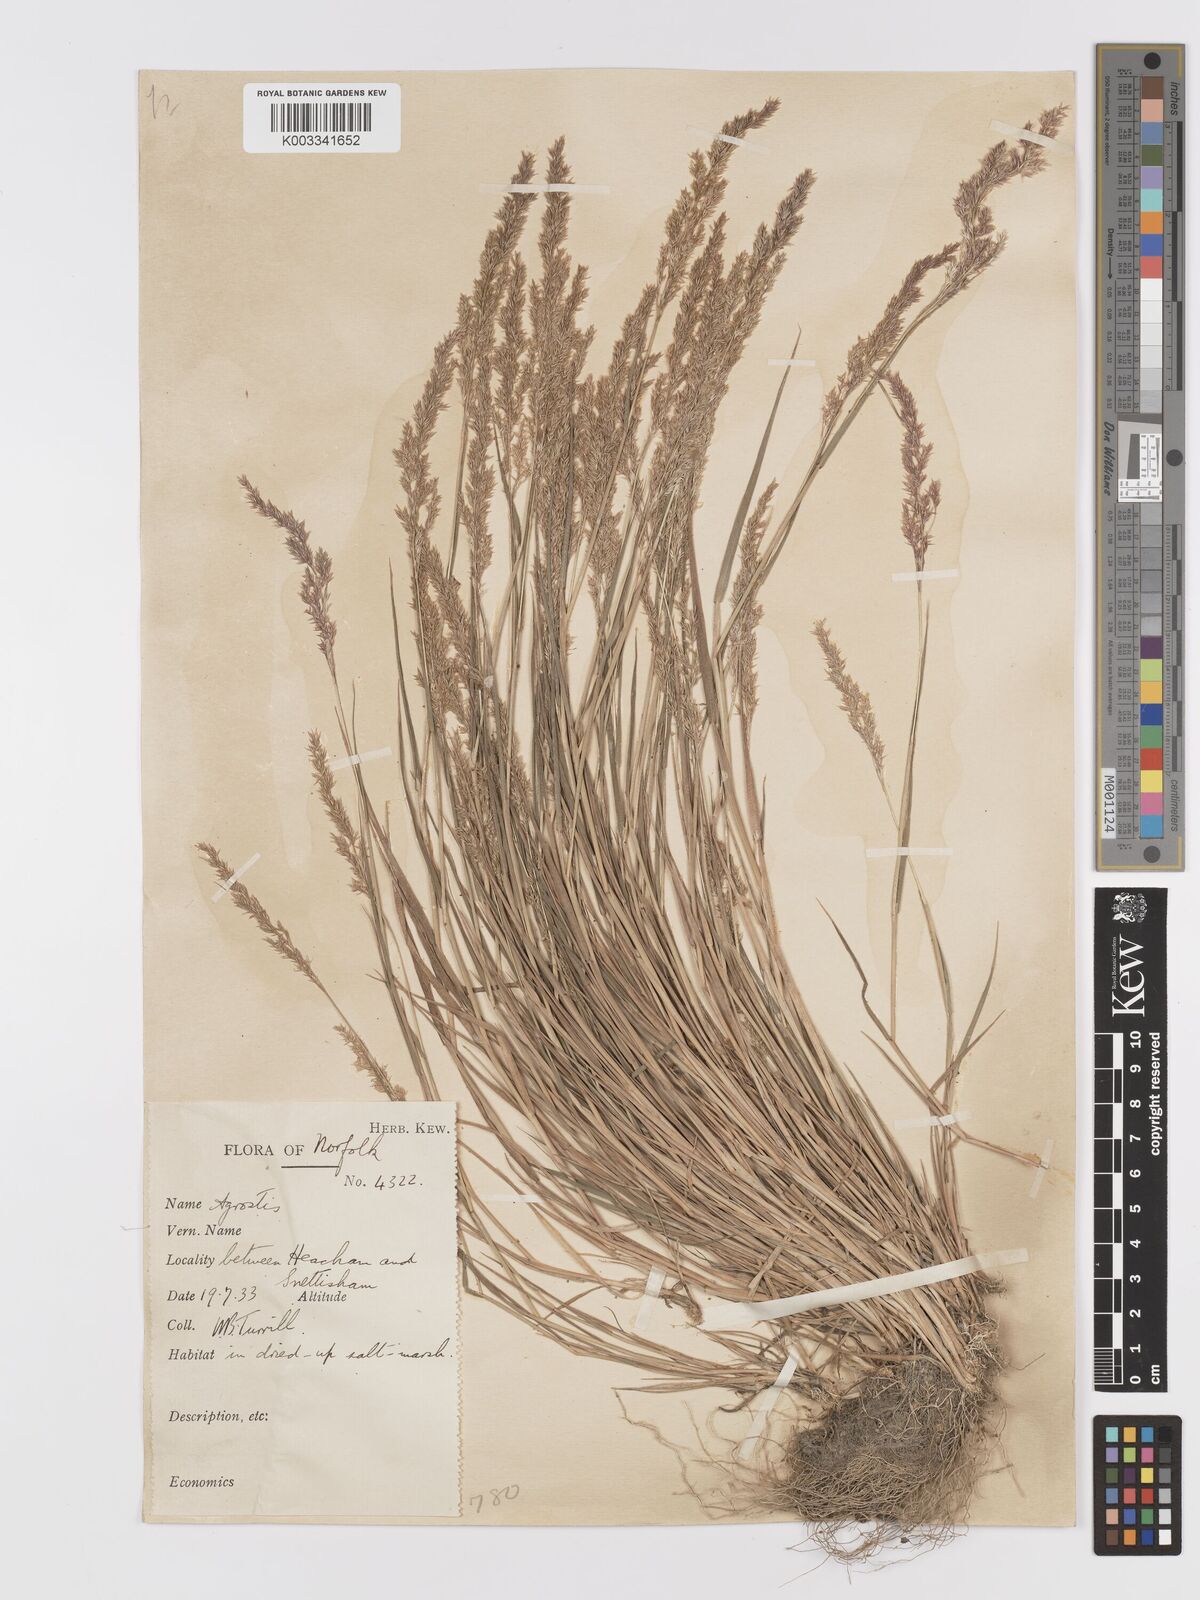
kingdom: Plantae
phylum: Tracheophyta
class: Liliopsida
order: Poales
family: Poaceae
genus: Agrostis
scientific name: Agrostis stolonifera
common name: Creeping bentgrass
